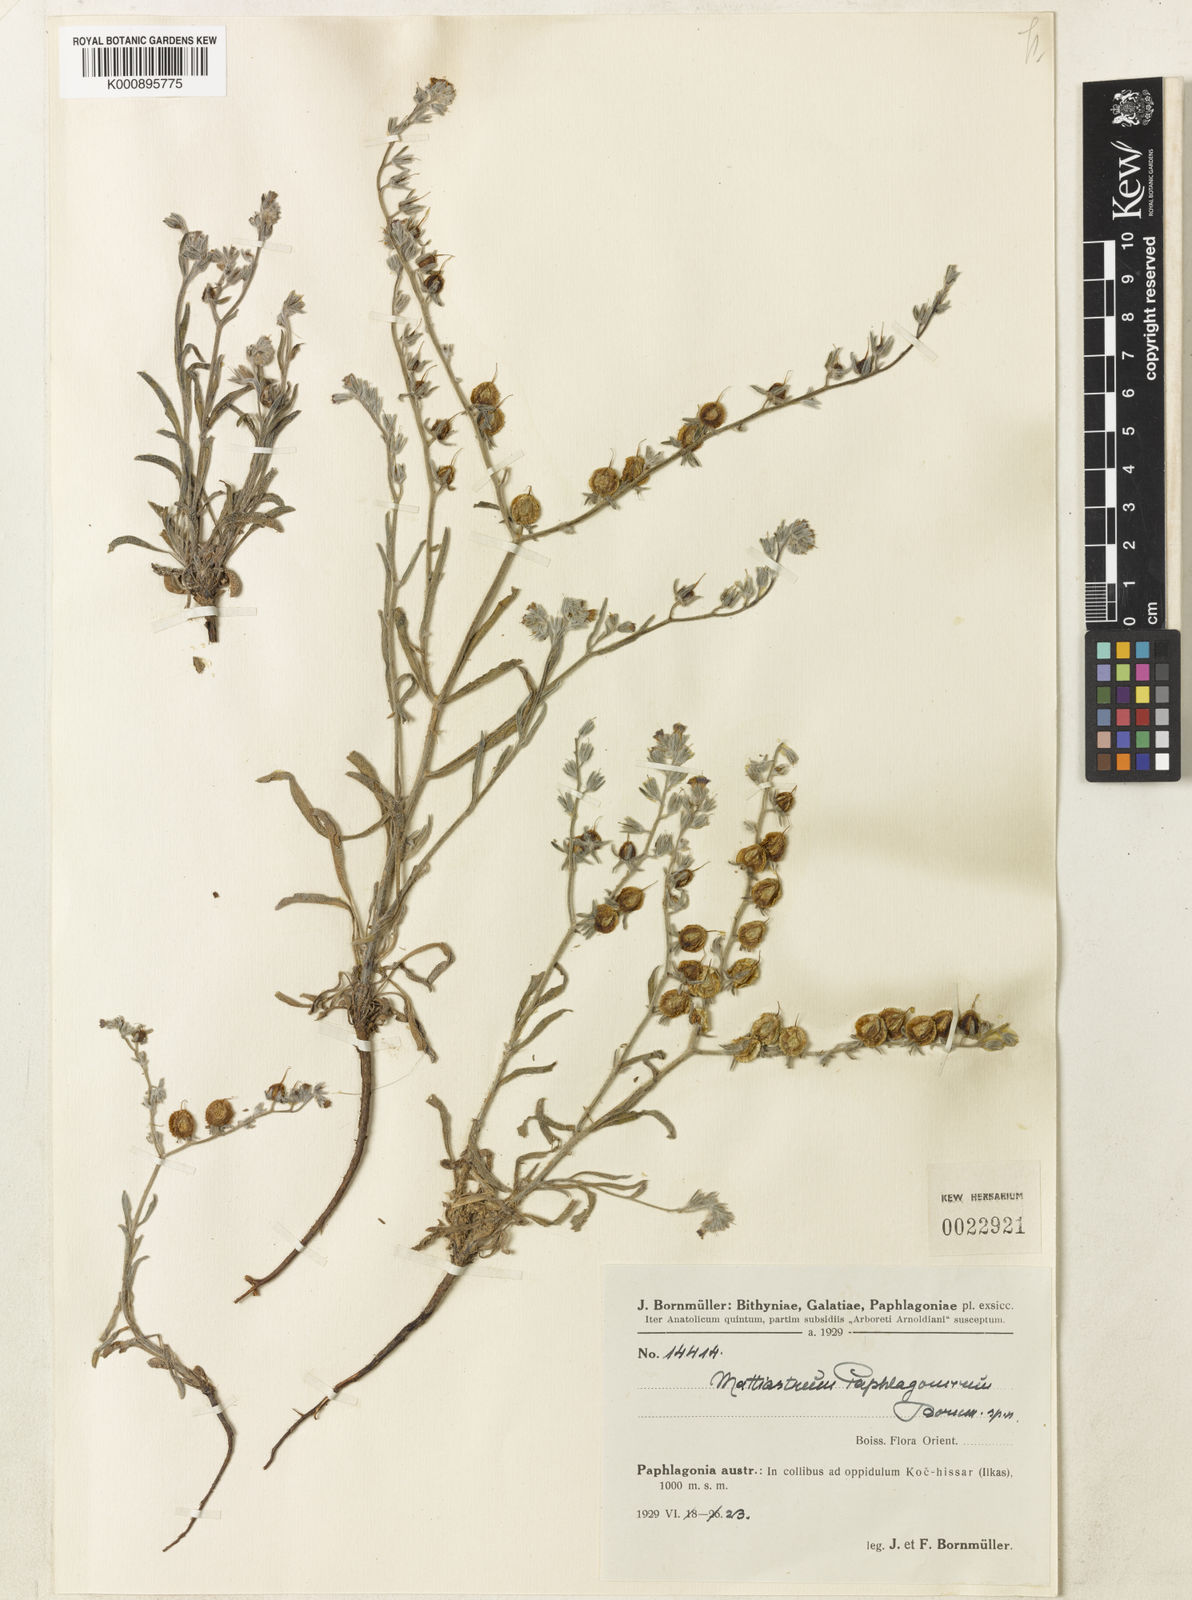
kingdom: Plantae
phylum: Tracheophyta
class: Magnoliopsida
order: Boraginales
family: Boraginaceae
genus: Paracaryum
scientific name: Paracaryum paphlagonicum
